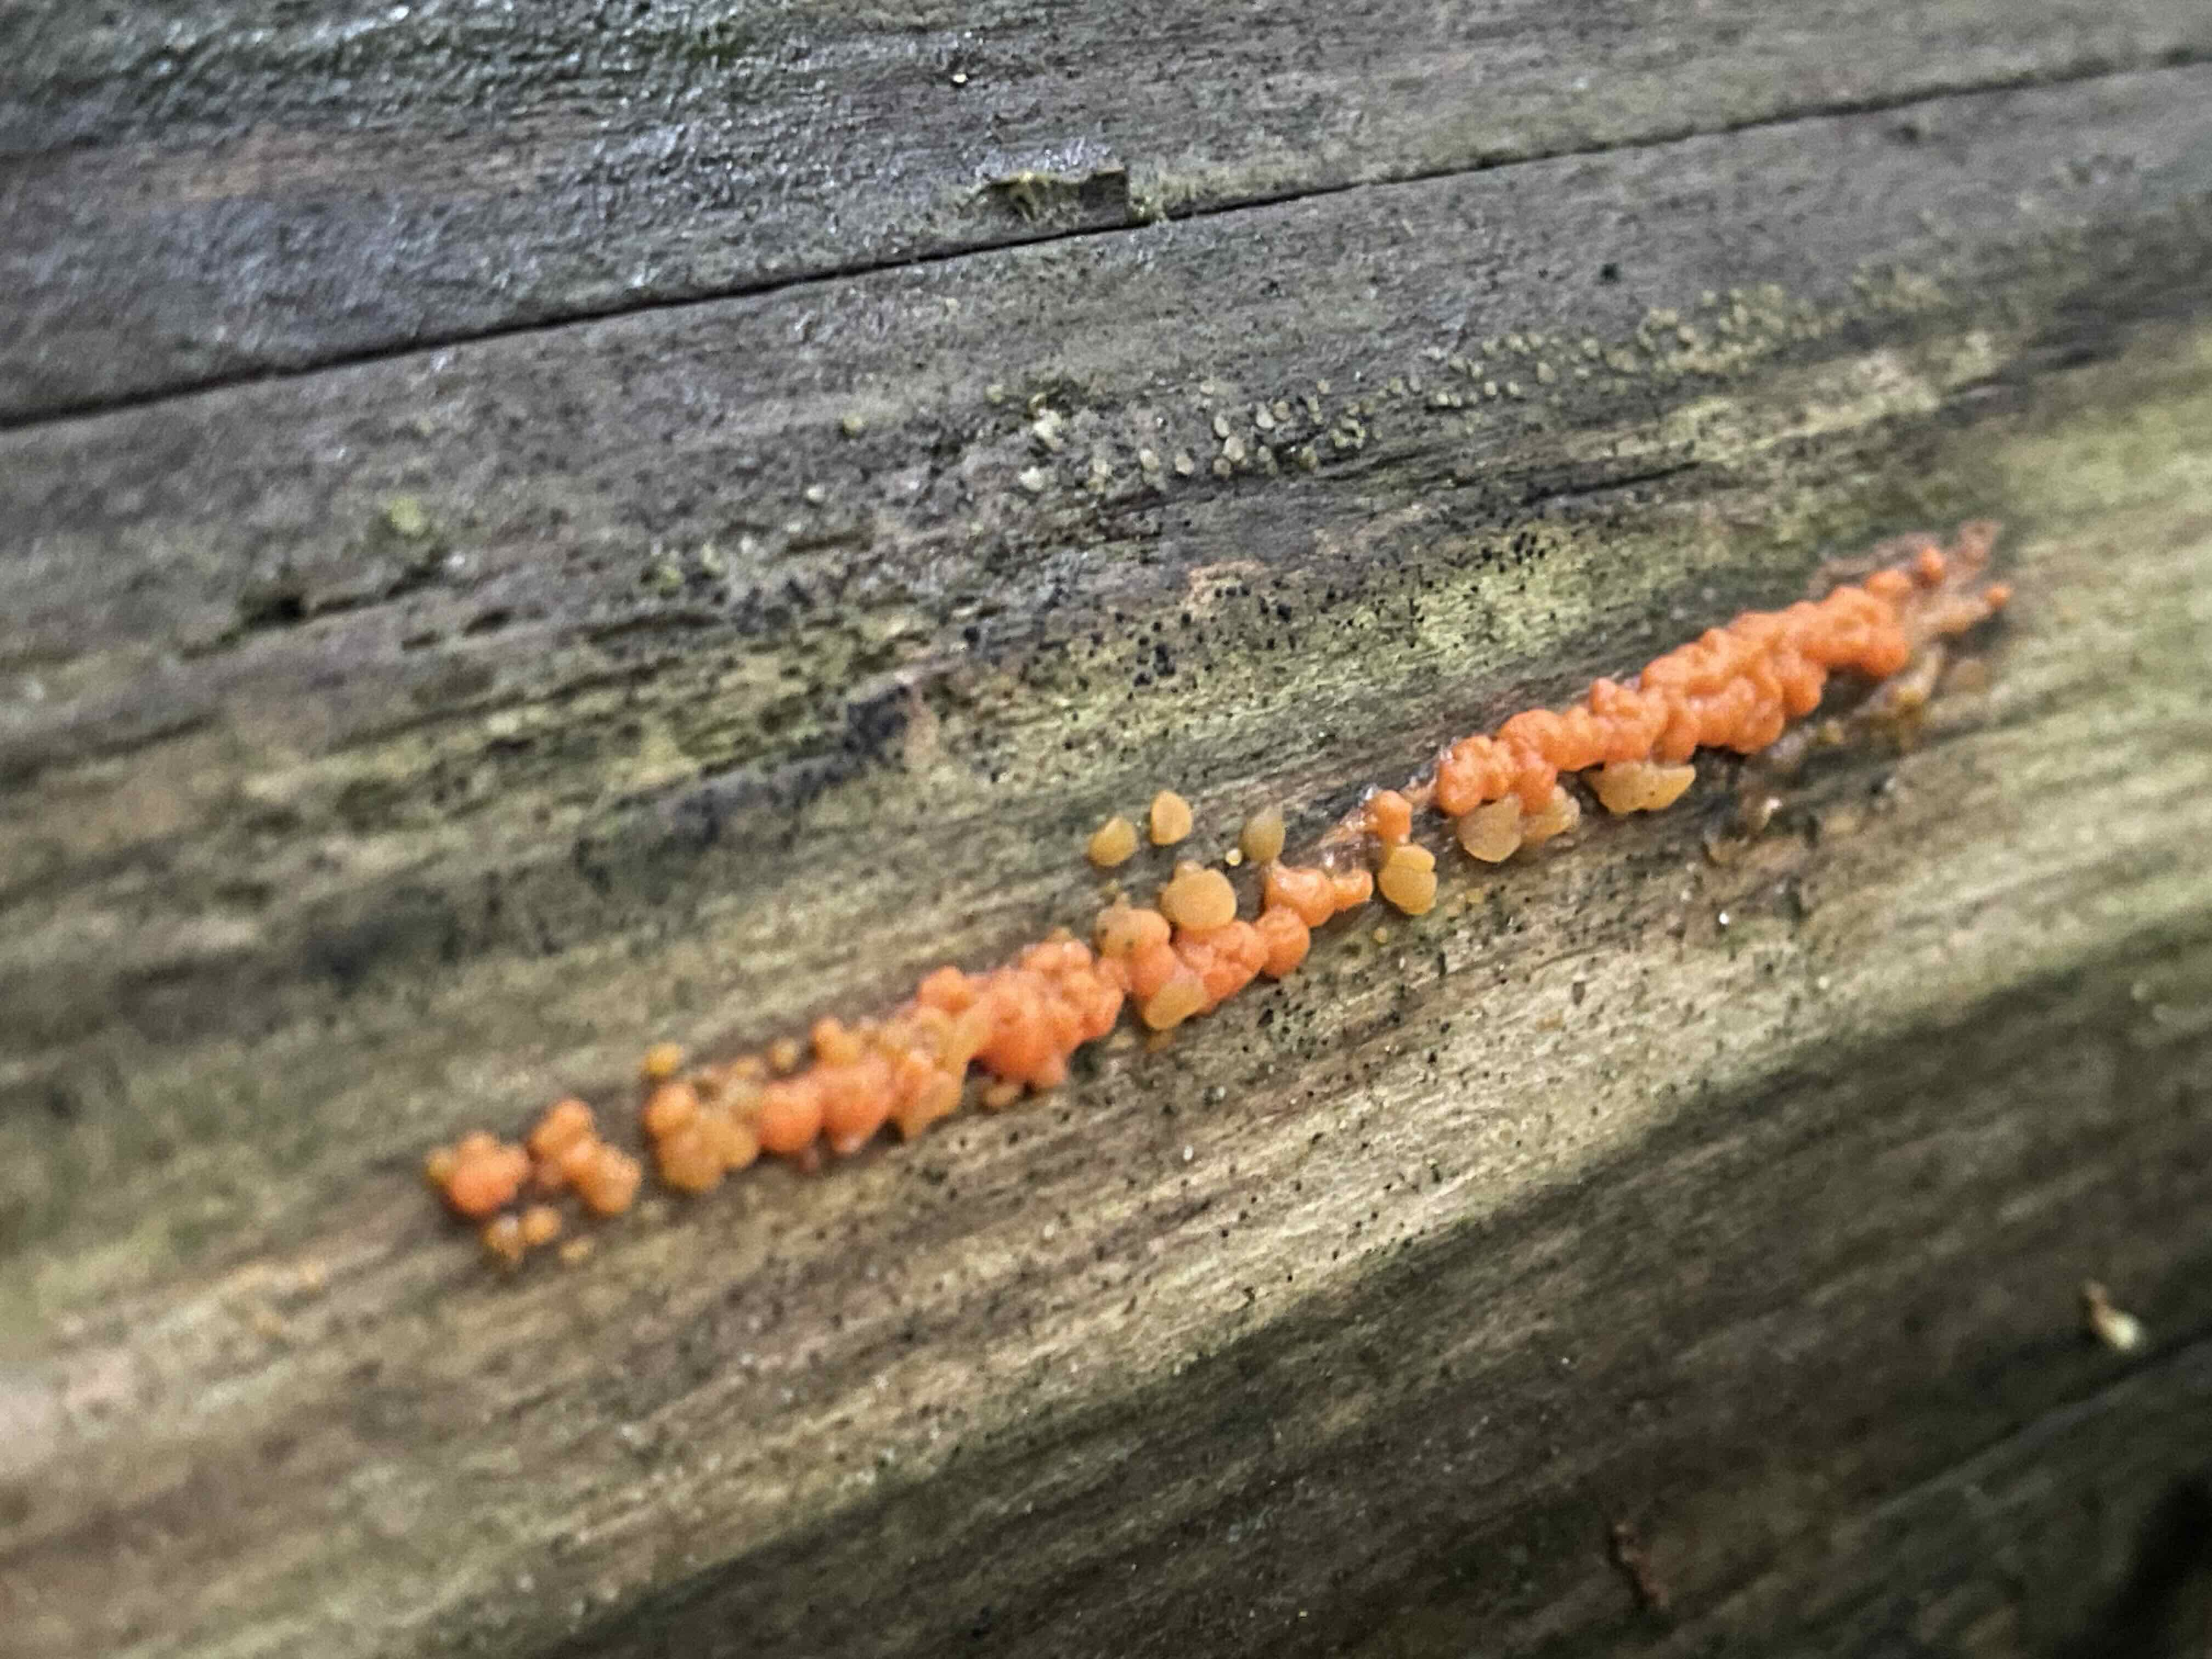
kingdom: Fungi
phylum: Basidiomycota
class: Dacrymycetes
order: Dacrymycetales
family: Dacrymycetaceae
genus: Dacrymyces
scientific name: Dacrymyces stillatus
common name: almindelig tåresvamp
